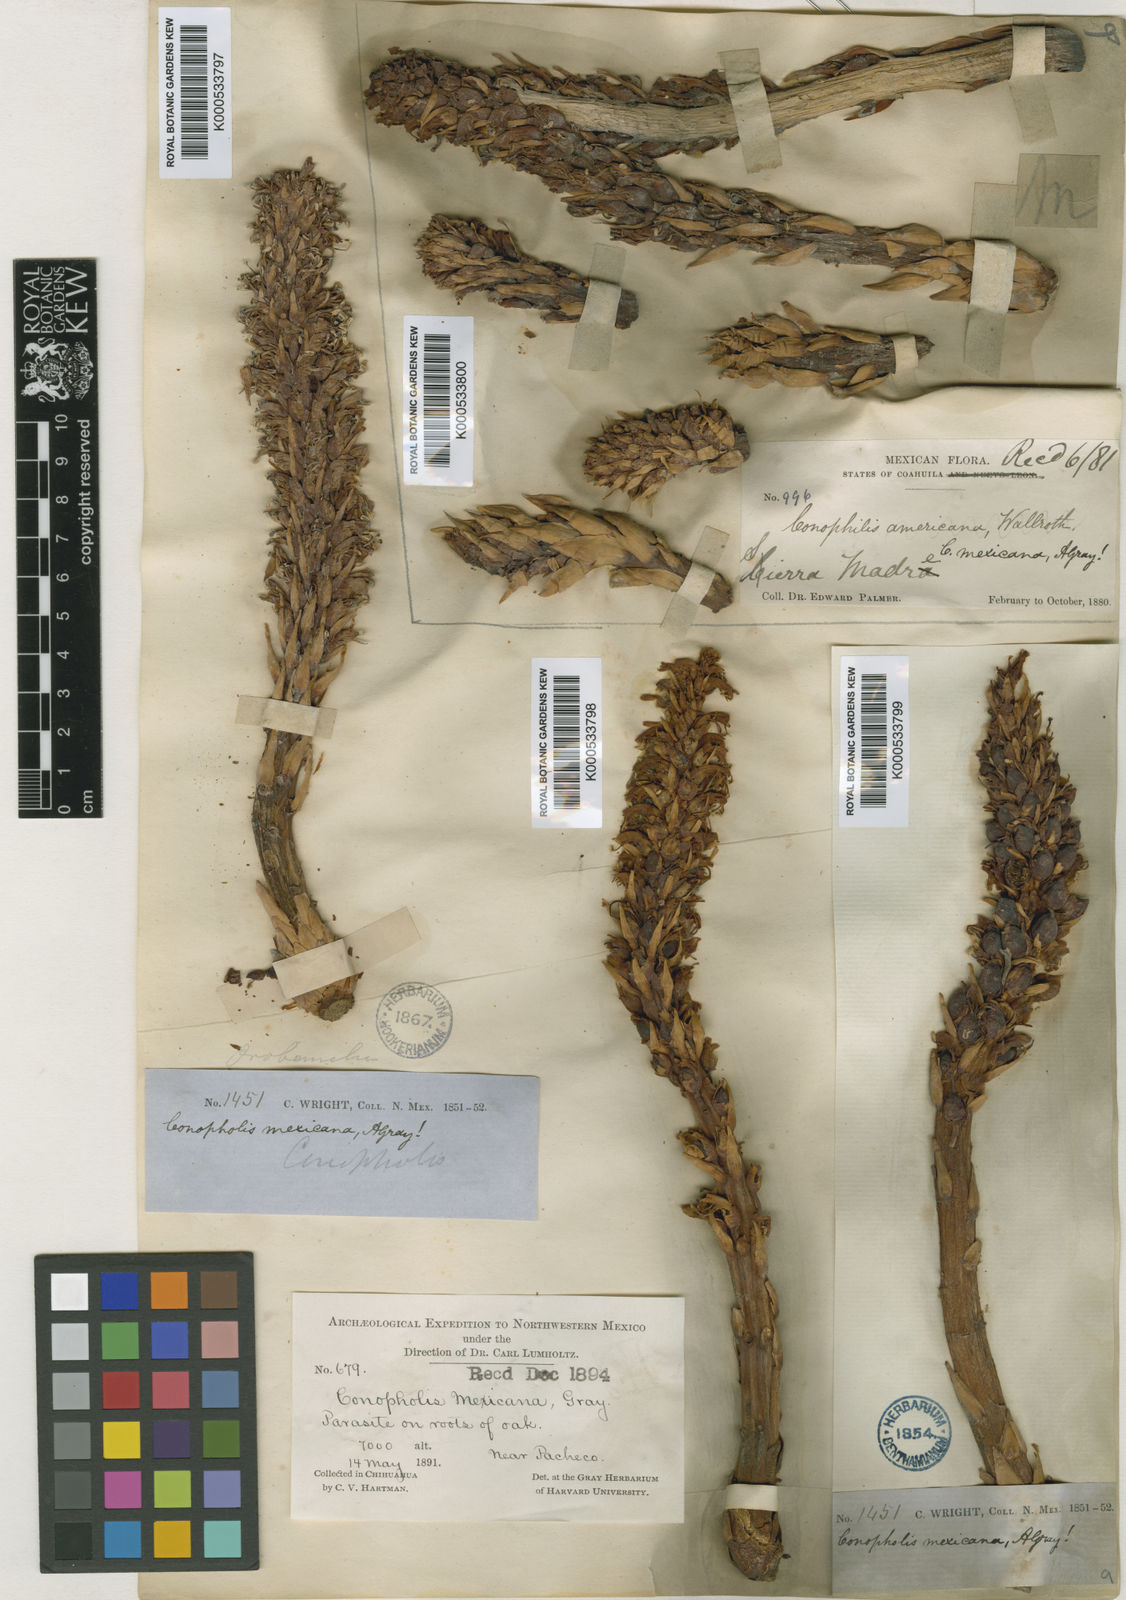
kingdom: Plantae
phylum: Tracheophyta
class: Magnoliopsida
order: Lamiales
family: Orobanchaceae
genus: Conopholis
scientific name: Conopholis alpina
